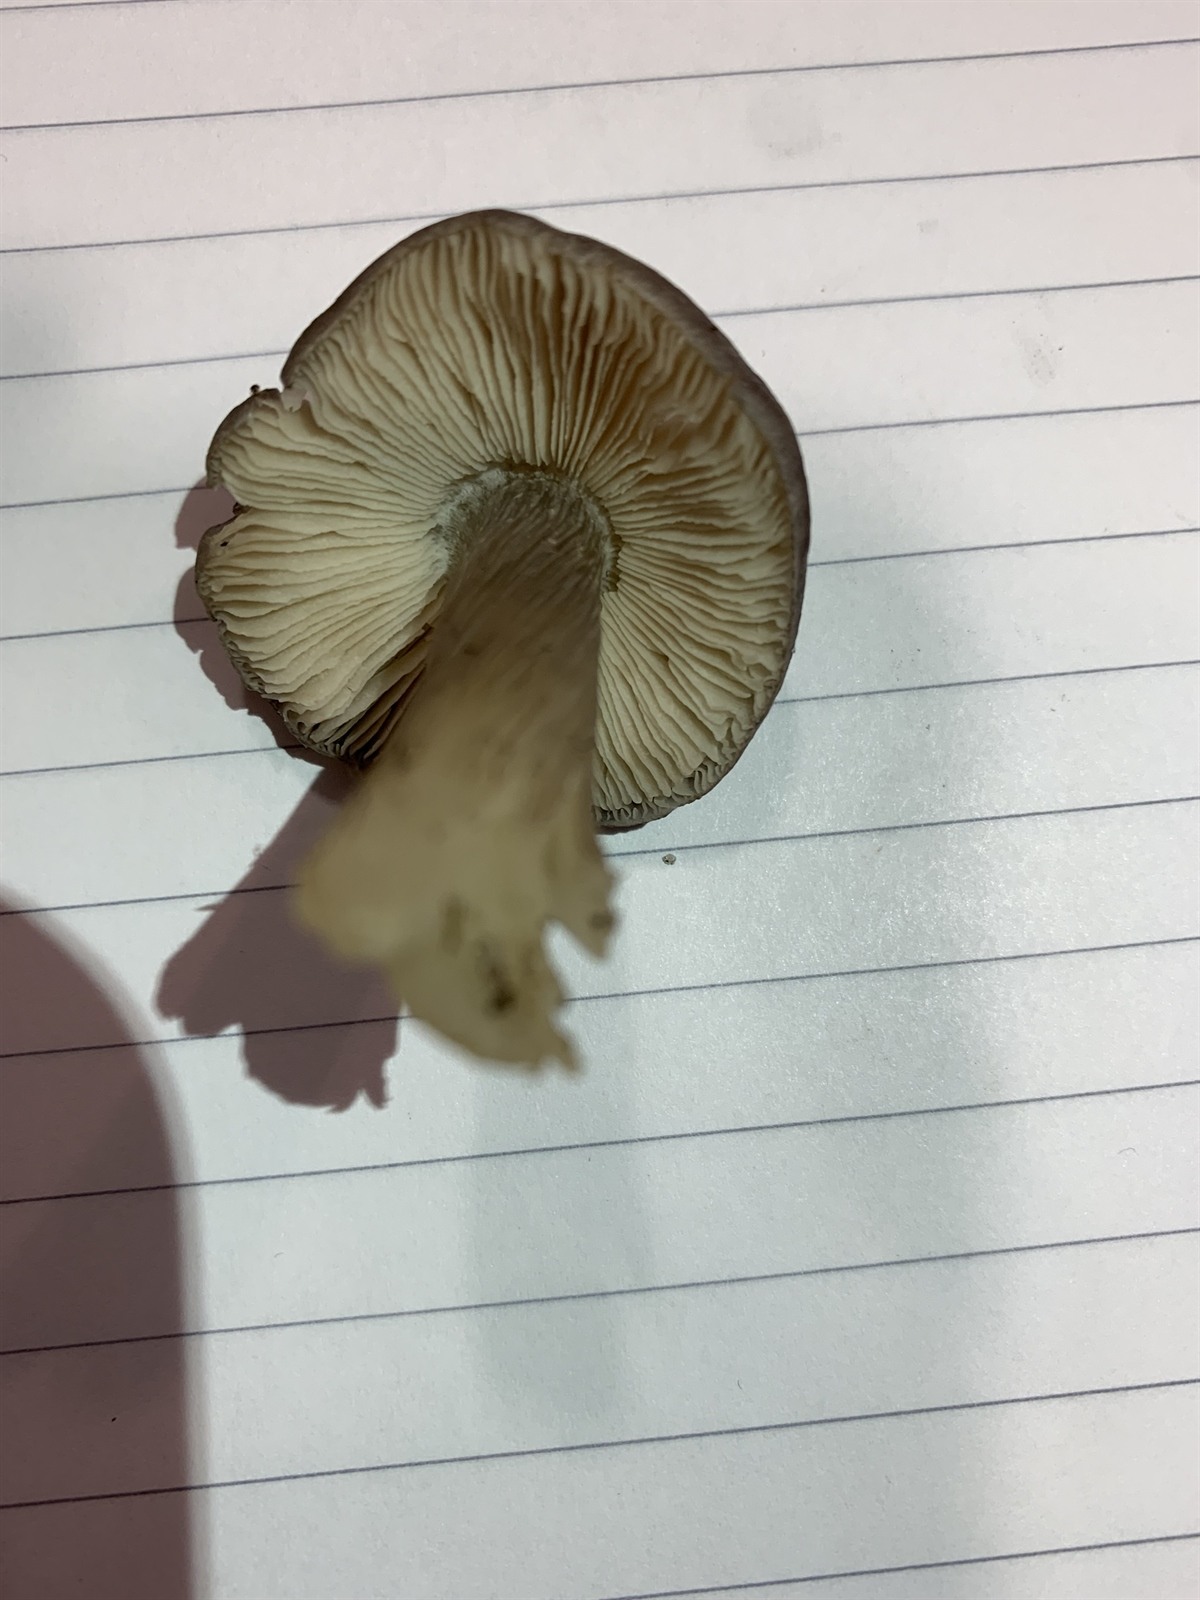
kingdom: Fungi
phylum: Basidiomycota
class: Agaricomycetes
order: Agaricales
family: Entolomataceae
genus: Entoloma
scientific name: Entoloma luteobasis
